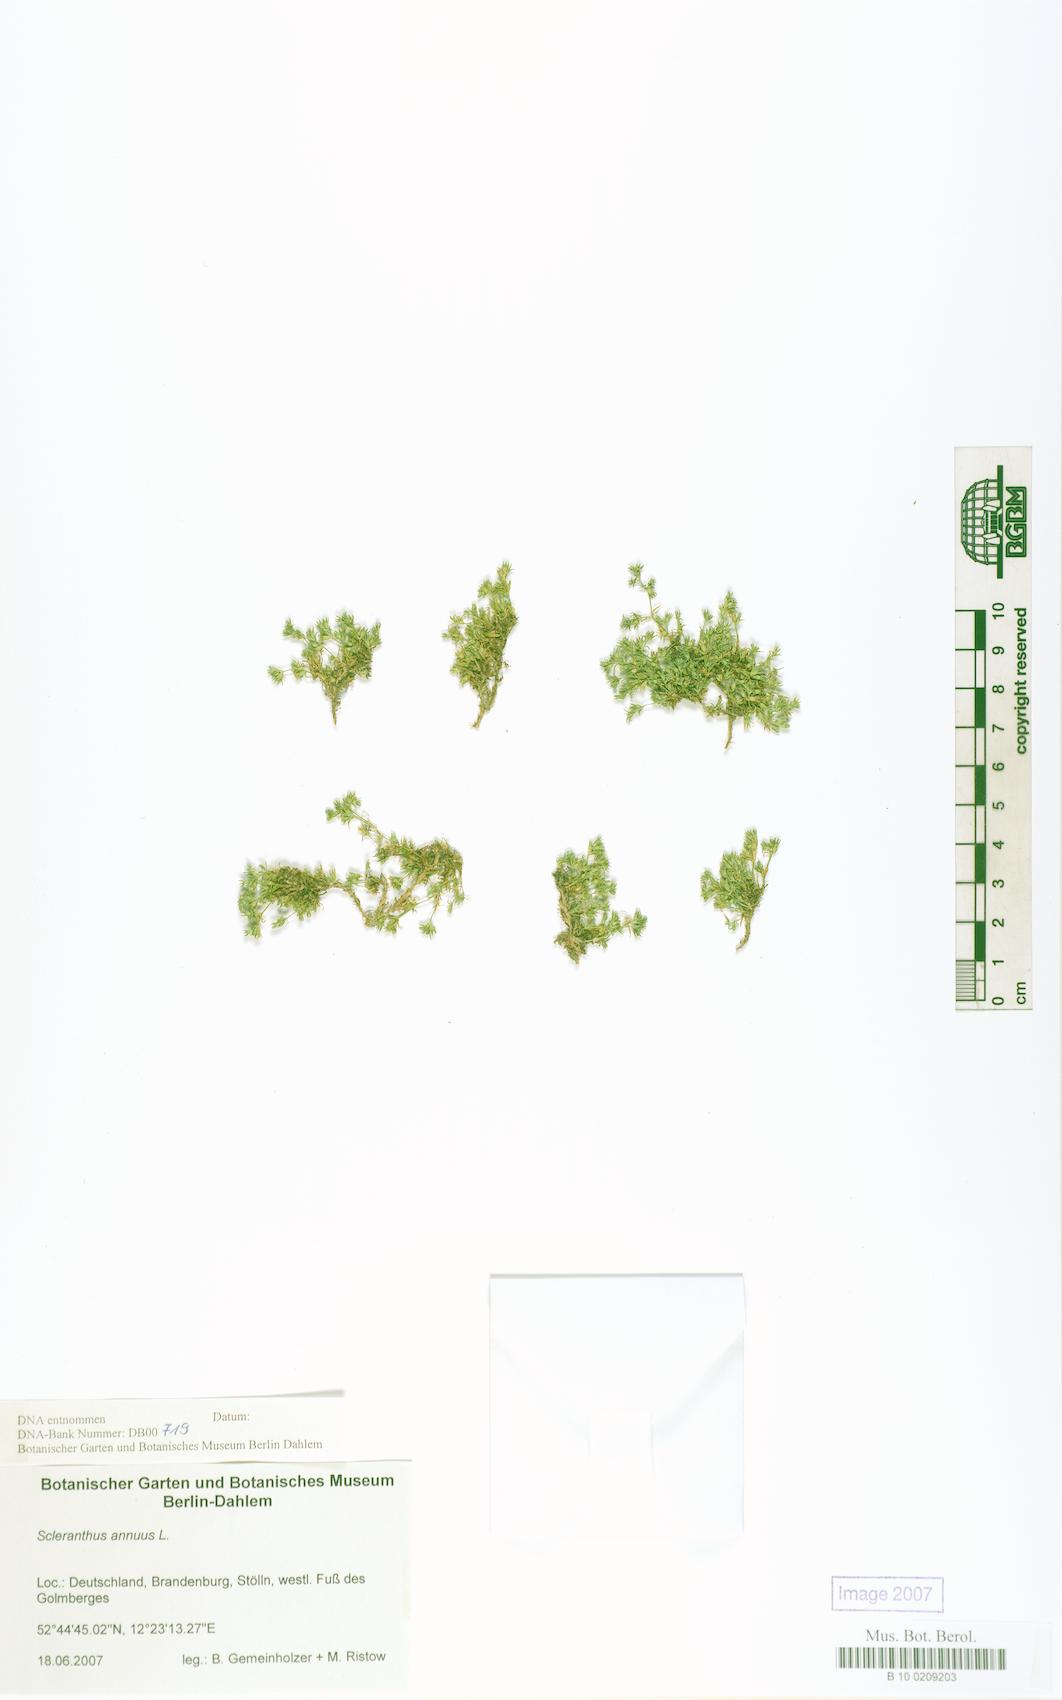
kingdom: Plantae
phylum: Tracheophyta
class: Magnoliopsida
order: Caryophyllales
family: Caryophyllaceae
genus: Scleranthus
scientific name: Scleranthus annuus
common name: Annual knawel
